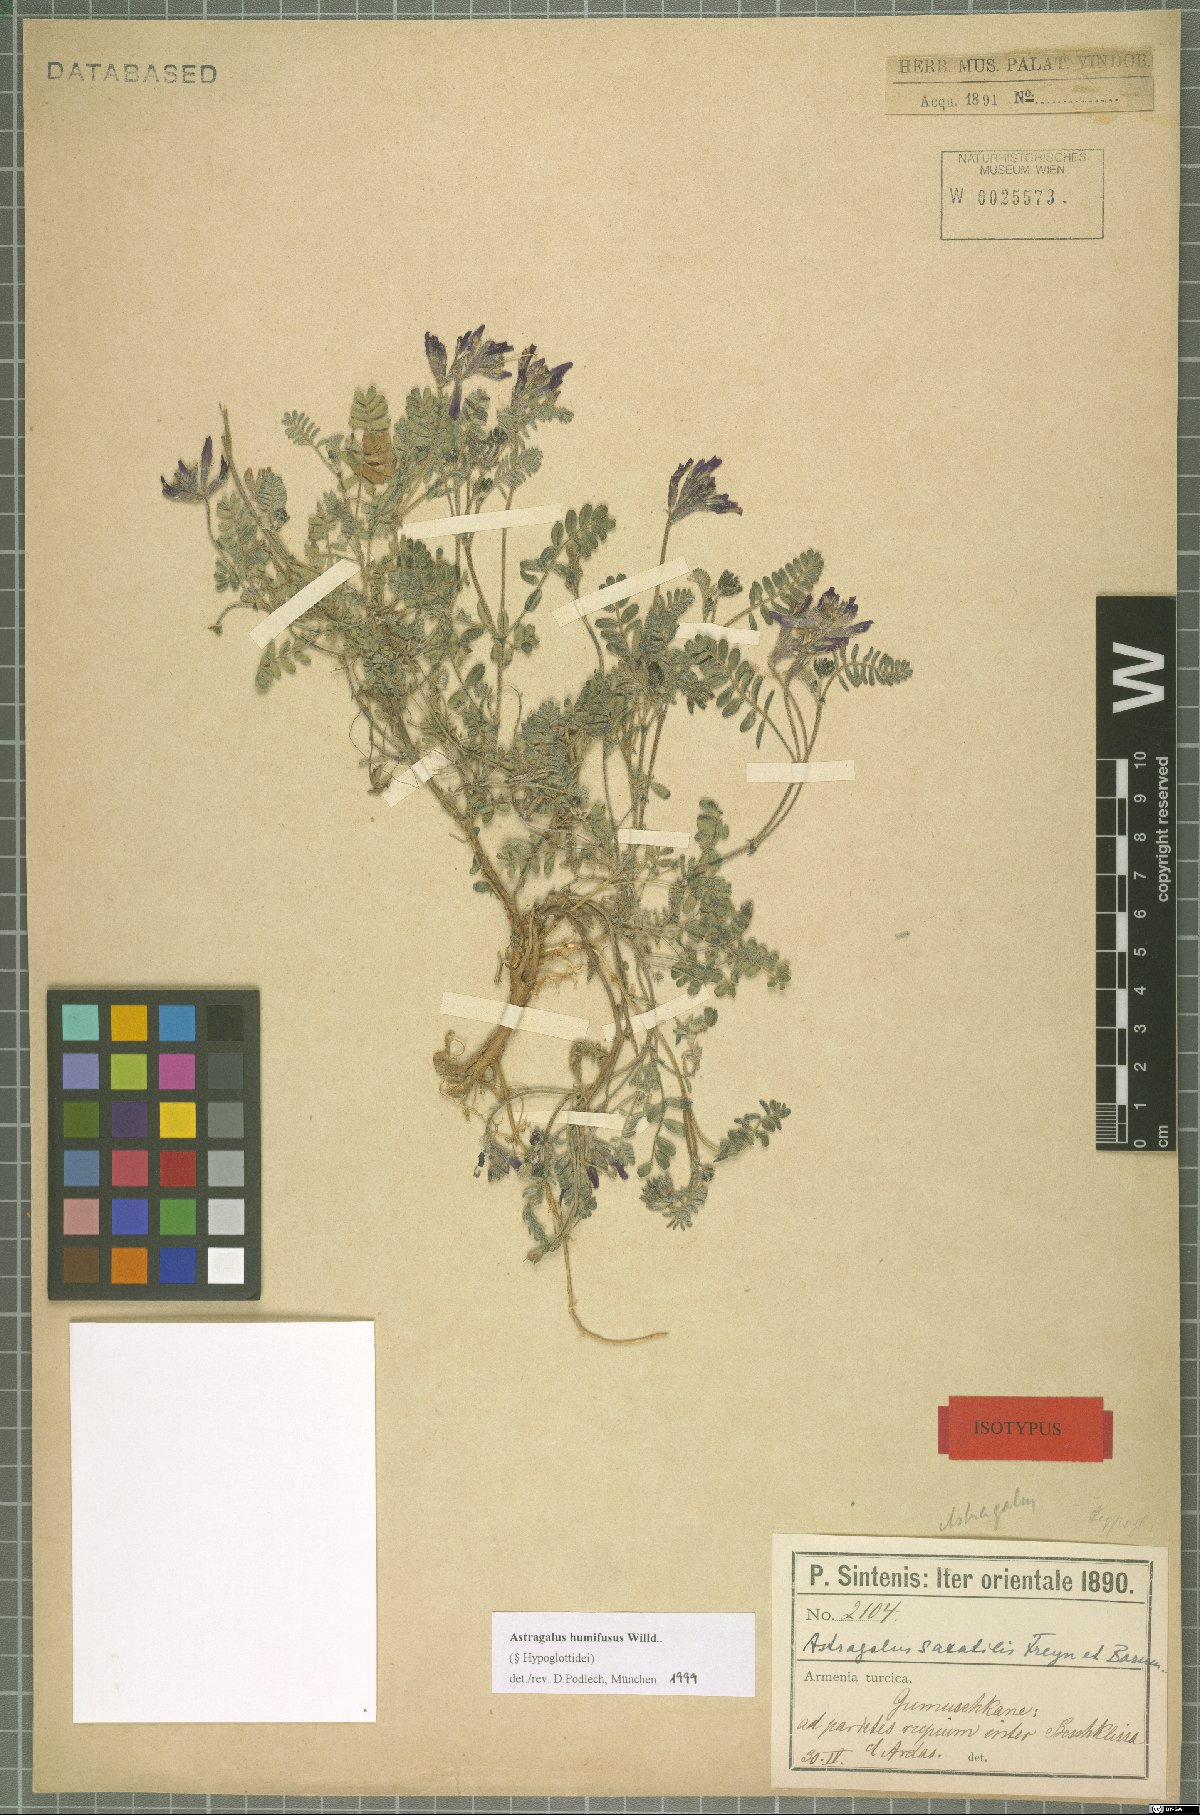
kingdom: Plantae
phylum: Tracheophyta
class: Magnoliopsida
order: Fabales
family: Fabaceae
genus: Astragalus
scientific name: Astragalus humifusus
